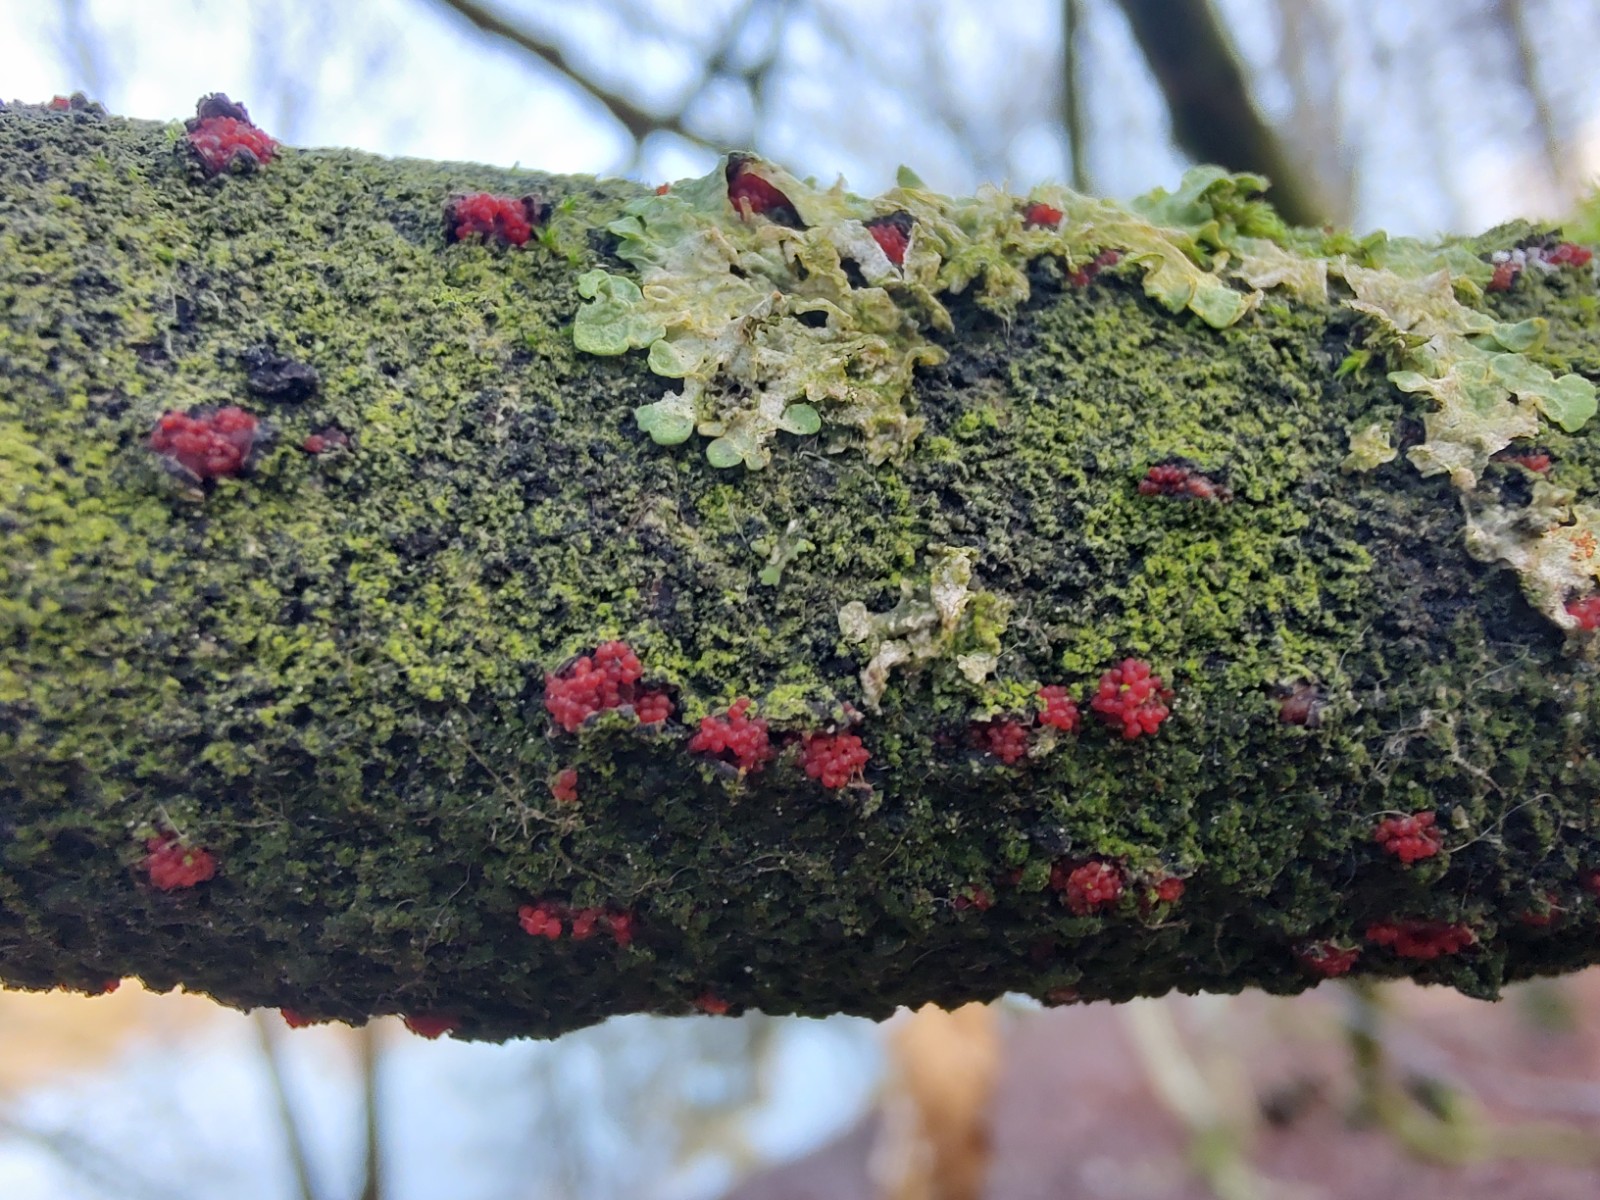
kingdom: Fungi
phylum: Ascomycota
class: Sordariomycetes
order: Hypocreales
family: Nectriaceae
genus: Neonectria
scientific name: Neonectria coccinea
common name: bøgebark-cinnobersvamp
